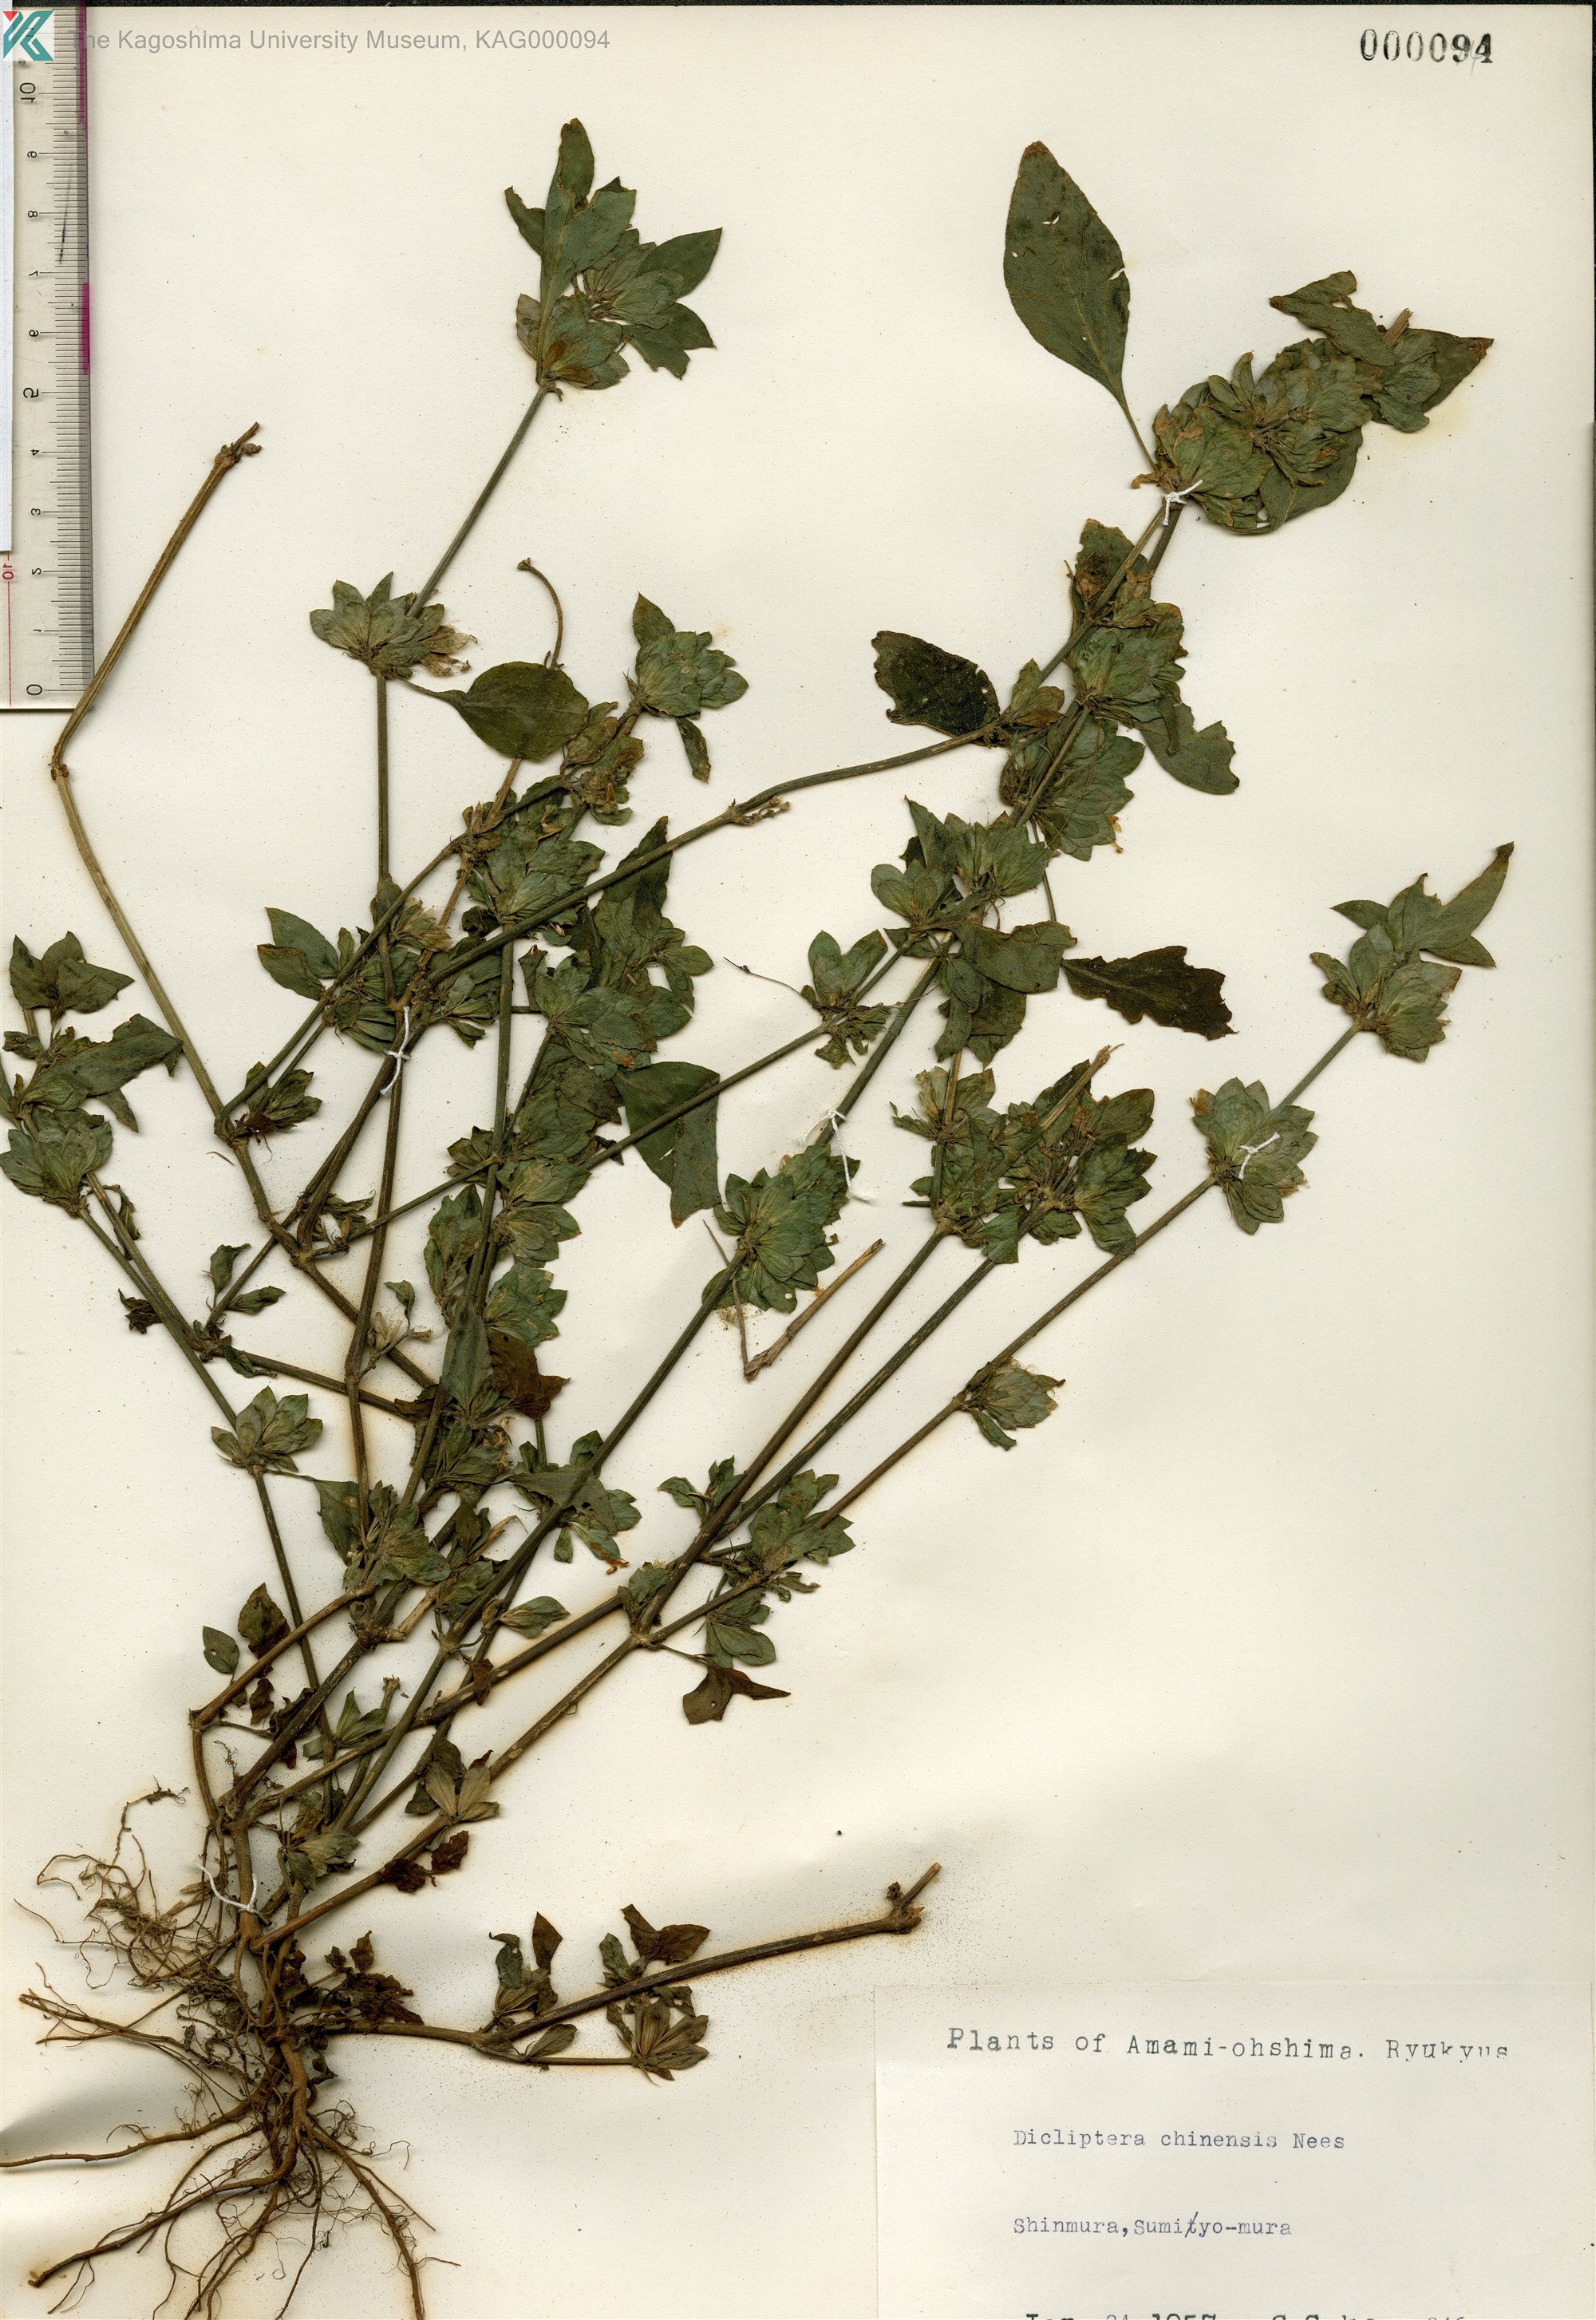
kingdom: Plantae
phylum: Tracheophyta
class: Magnoliopsida
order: Lamiales
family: Acanthaceae
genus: Dicliptera
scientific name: Dicliptera chinensis
